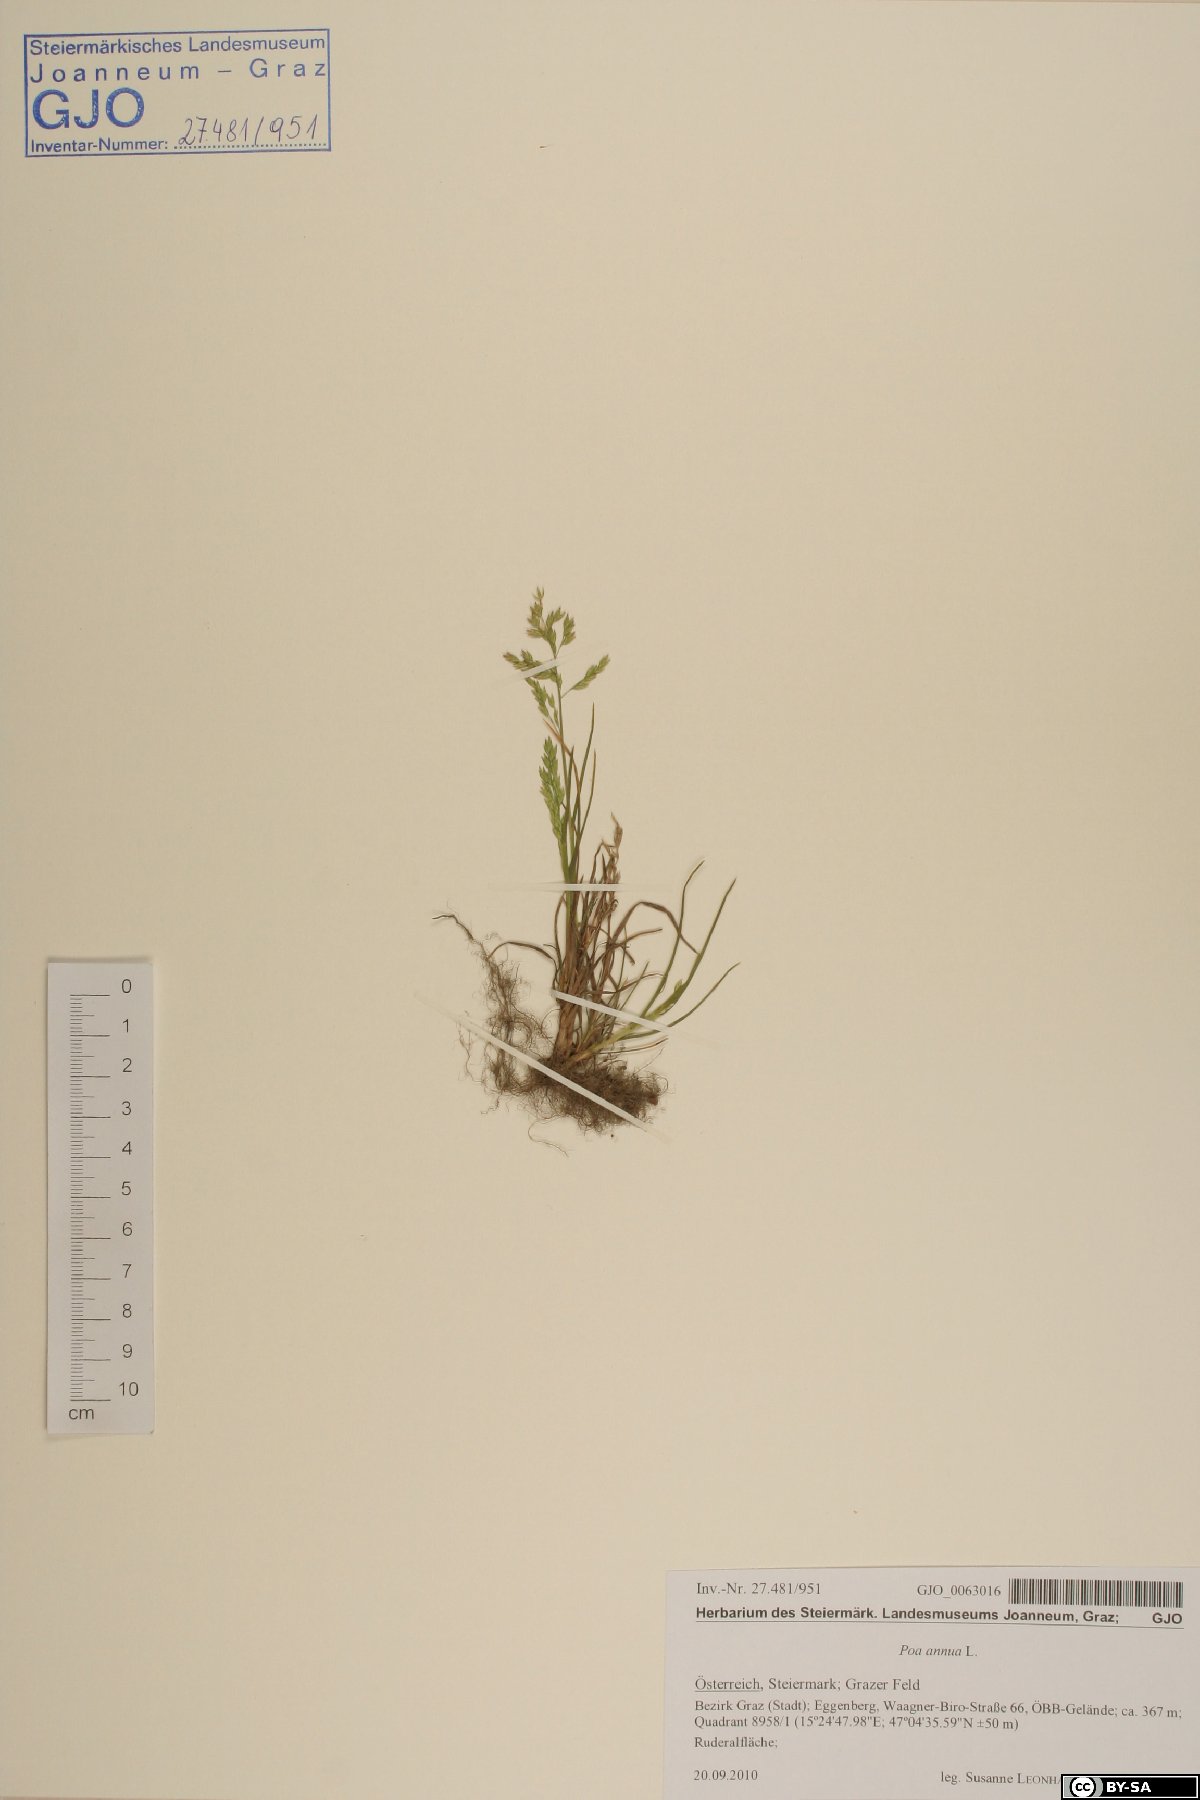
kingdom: Plantae
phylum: Tracheophyta
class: Liliopsida
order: Poales
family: Poaceae
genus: Poa
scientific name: Poa annua
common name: Annual bluegrass
